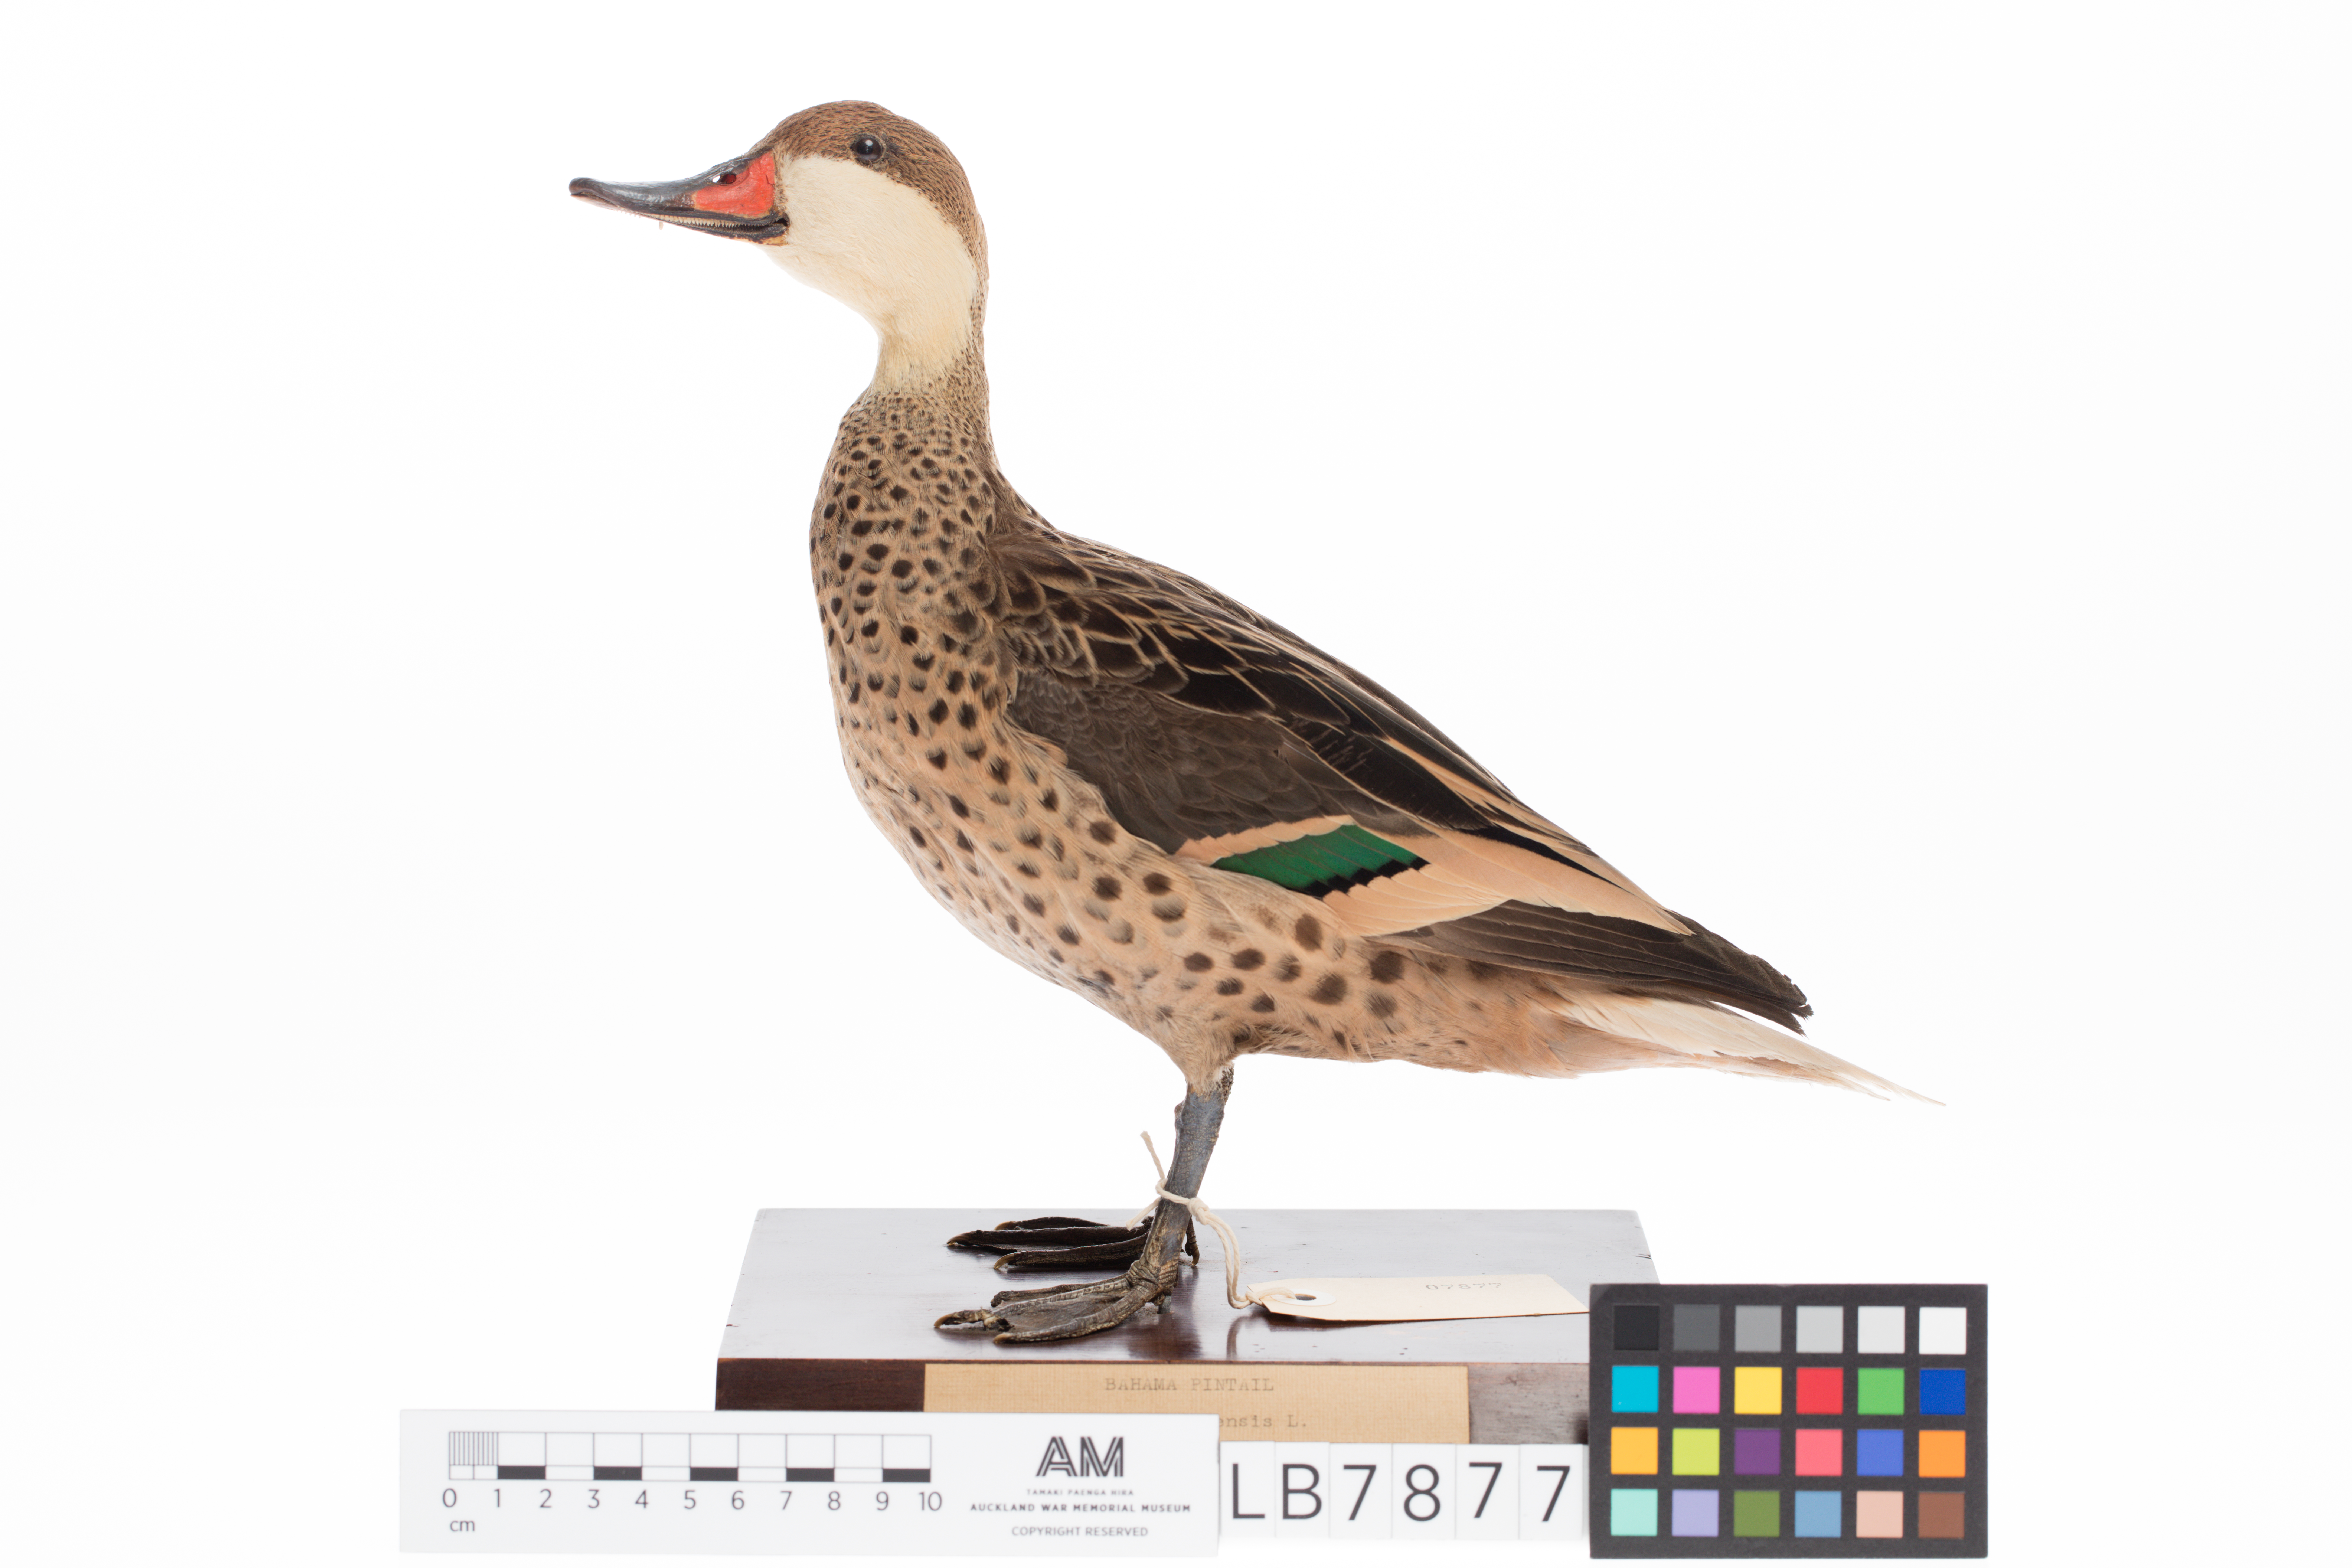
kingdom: Animalia
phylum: Chordata
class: Aves
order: Anseriformes
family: Anatidae
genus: Anas
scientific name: Anas bahamensis
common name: White-cheeked pintail
